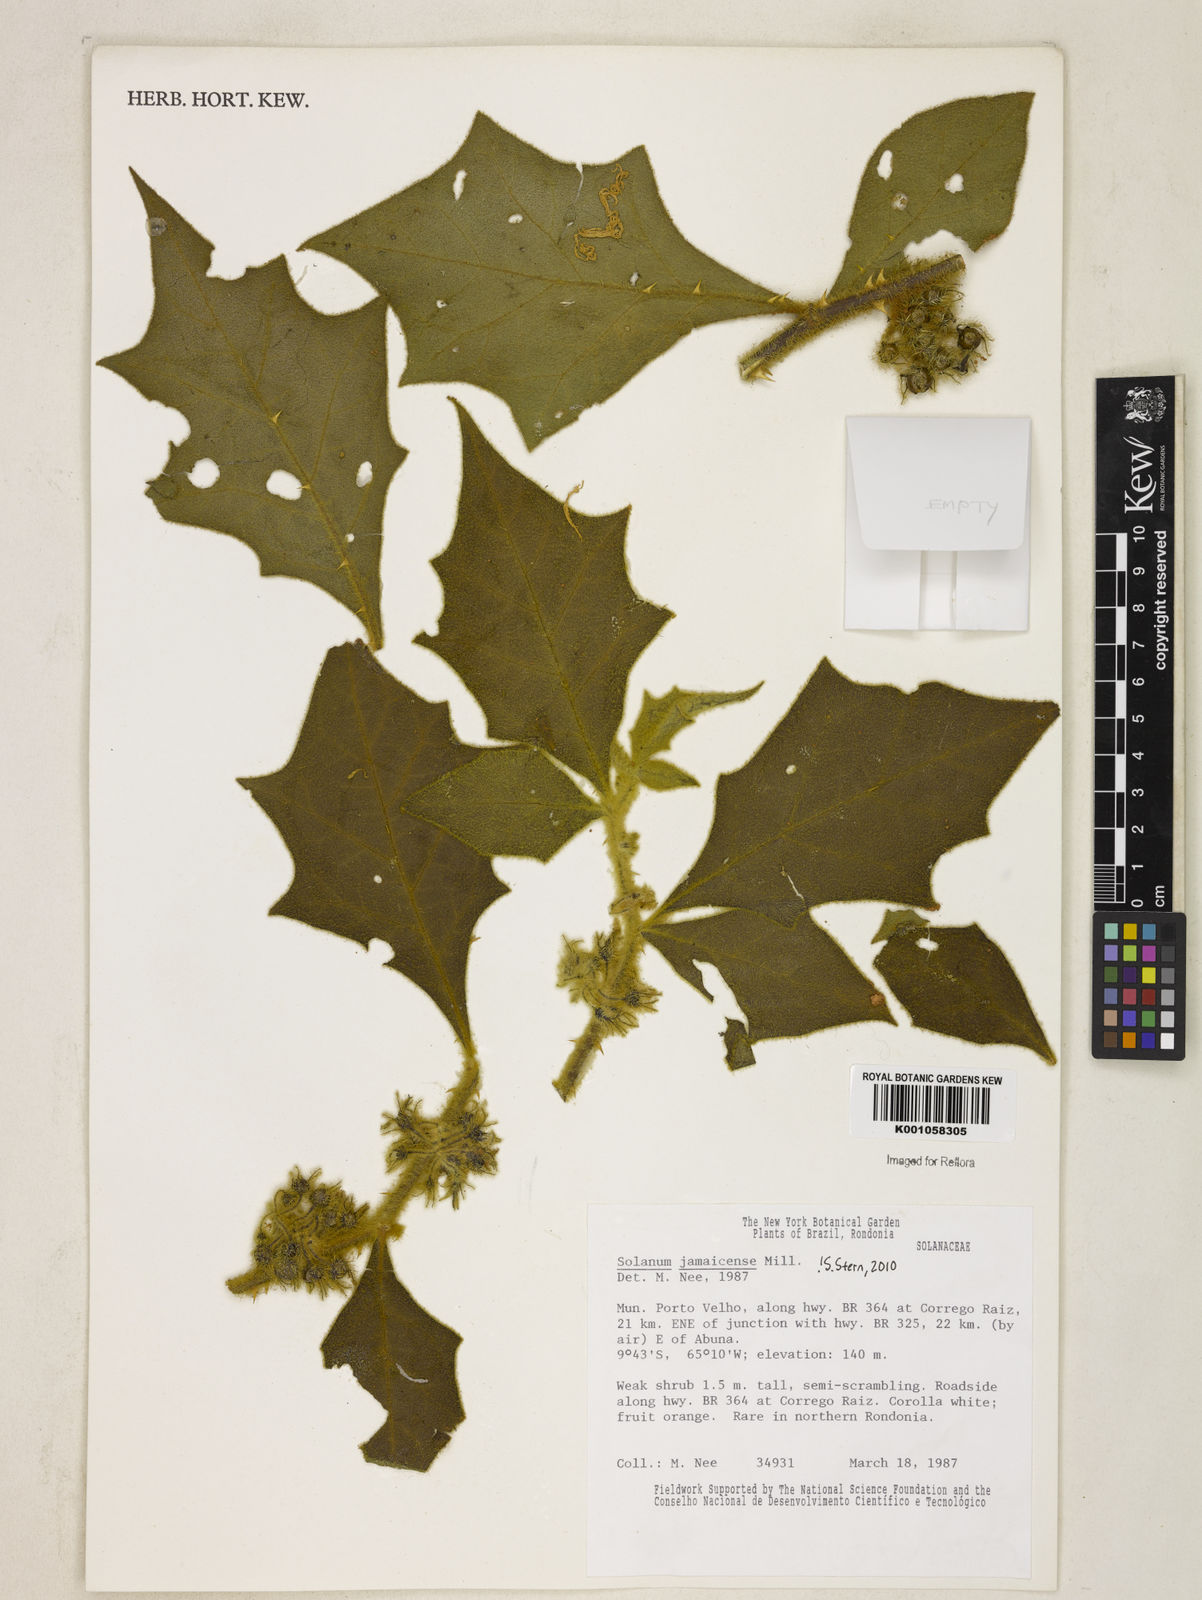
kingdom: Plantae
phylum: Tracheophyta
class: Magnoliopsida
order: Solanales
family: Solanaceae
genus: Solanum
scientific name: Solanum jamaicense
